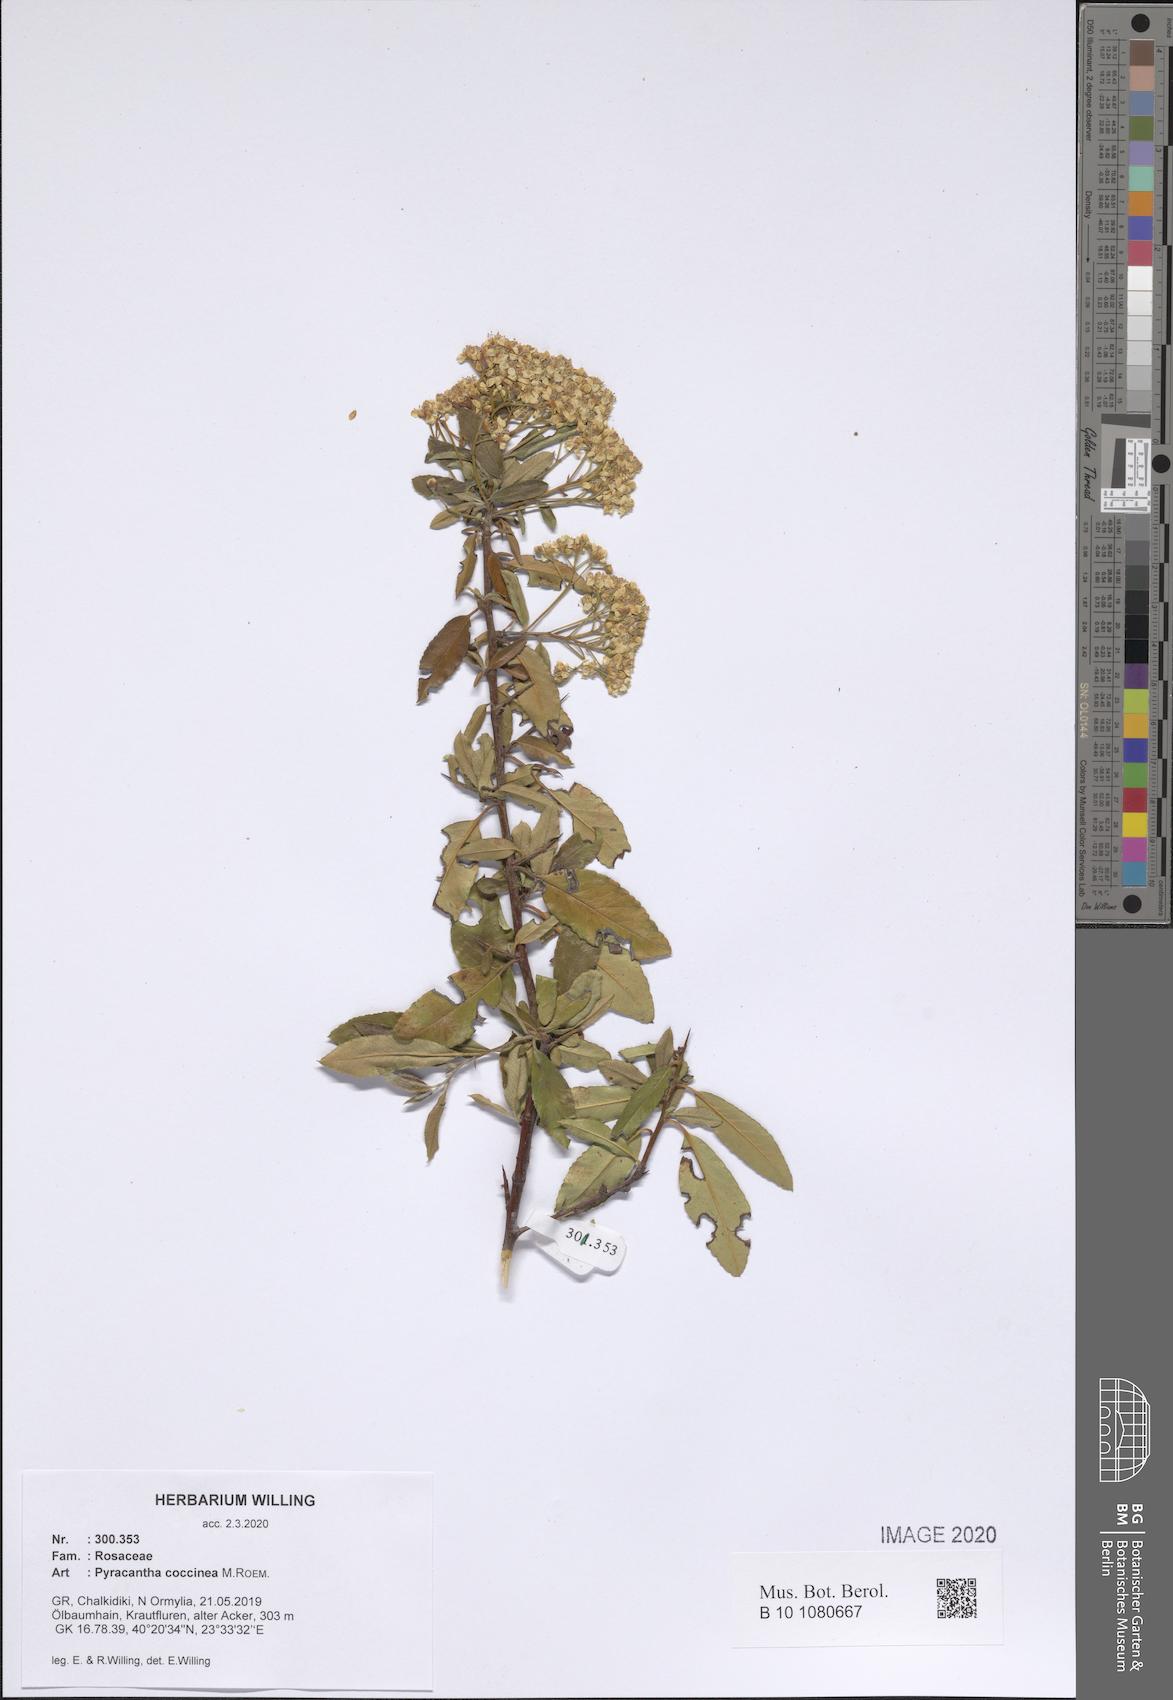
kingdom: Plantae
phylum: Tracheophyta
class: Magnoliopsida
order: Rosales
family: Rosaceae
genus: Pyracantha
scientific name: Pyracantha coccinea
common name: Firethorn
